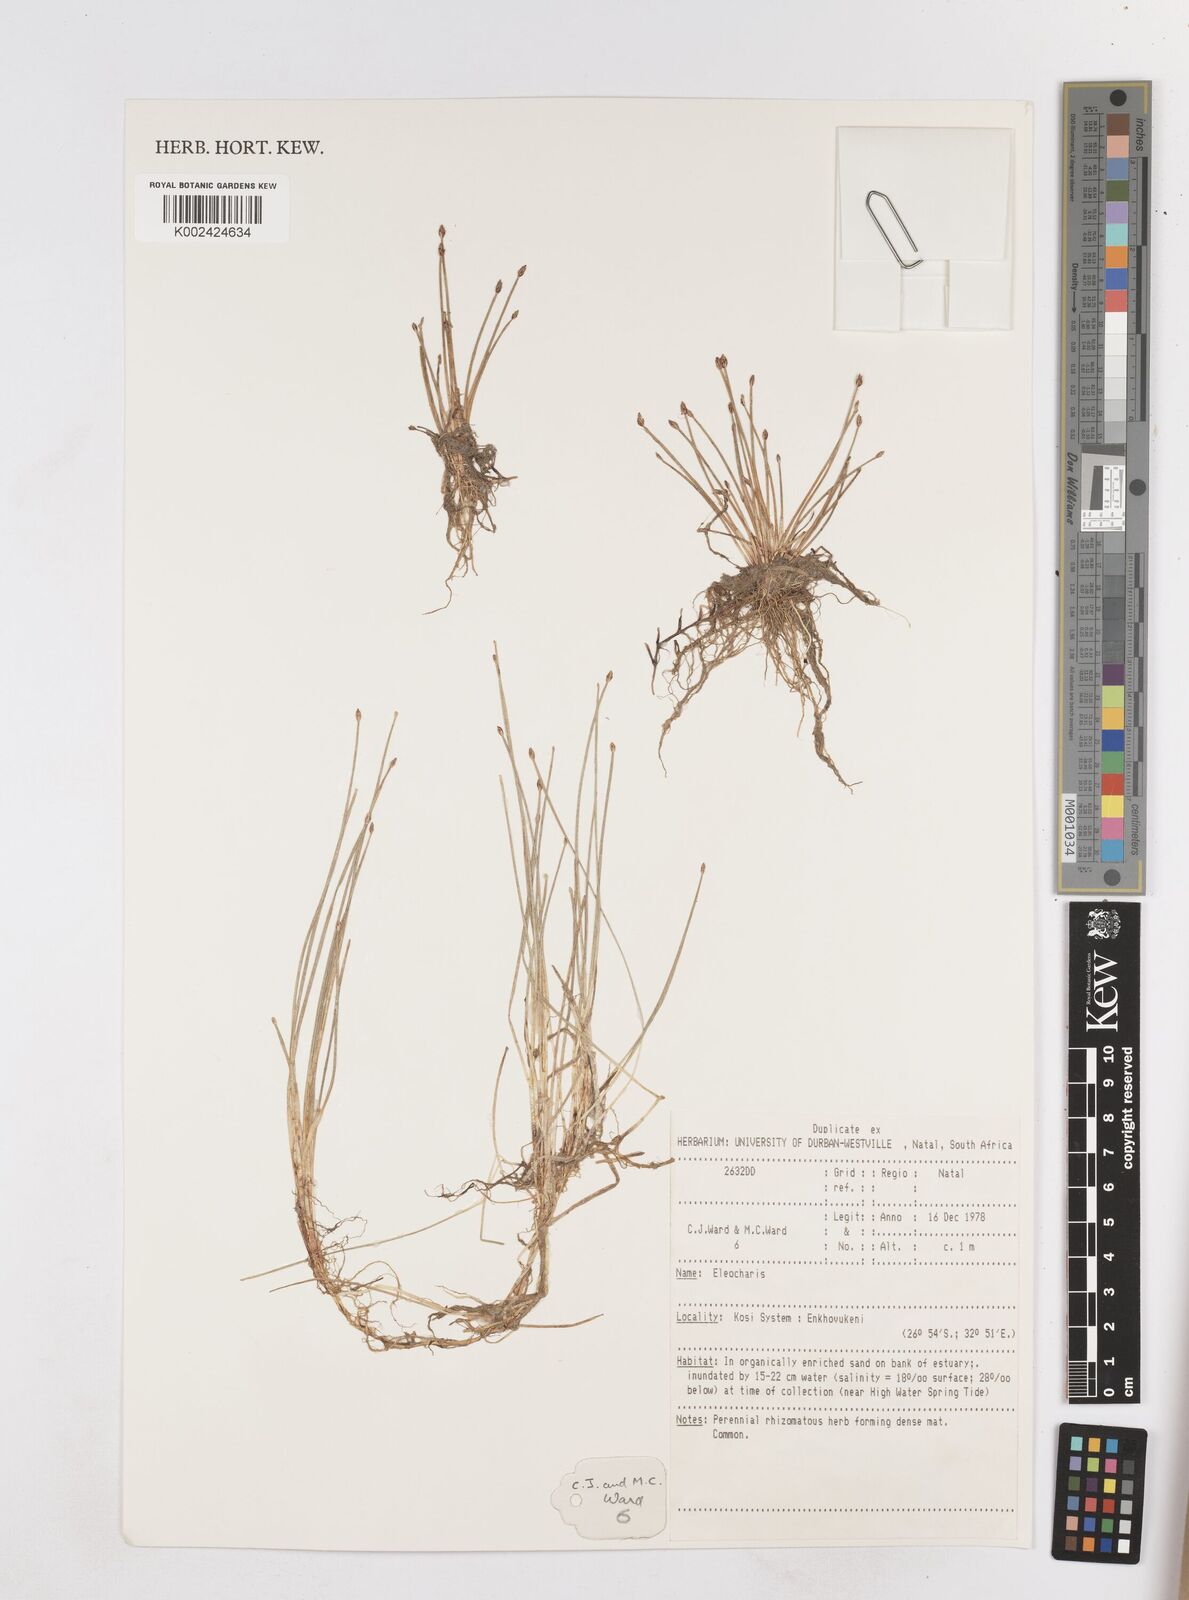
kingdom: Plantae
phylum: Tracheophyta
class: Liliopsida
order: Poales
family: Cyperaceae
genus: Eleocharis
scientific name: Eleocharis
